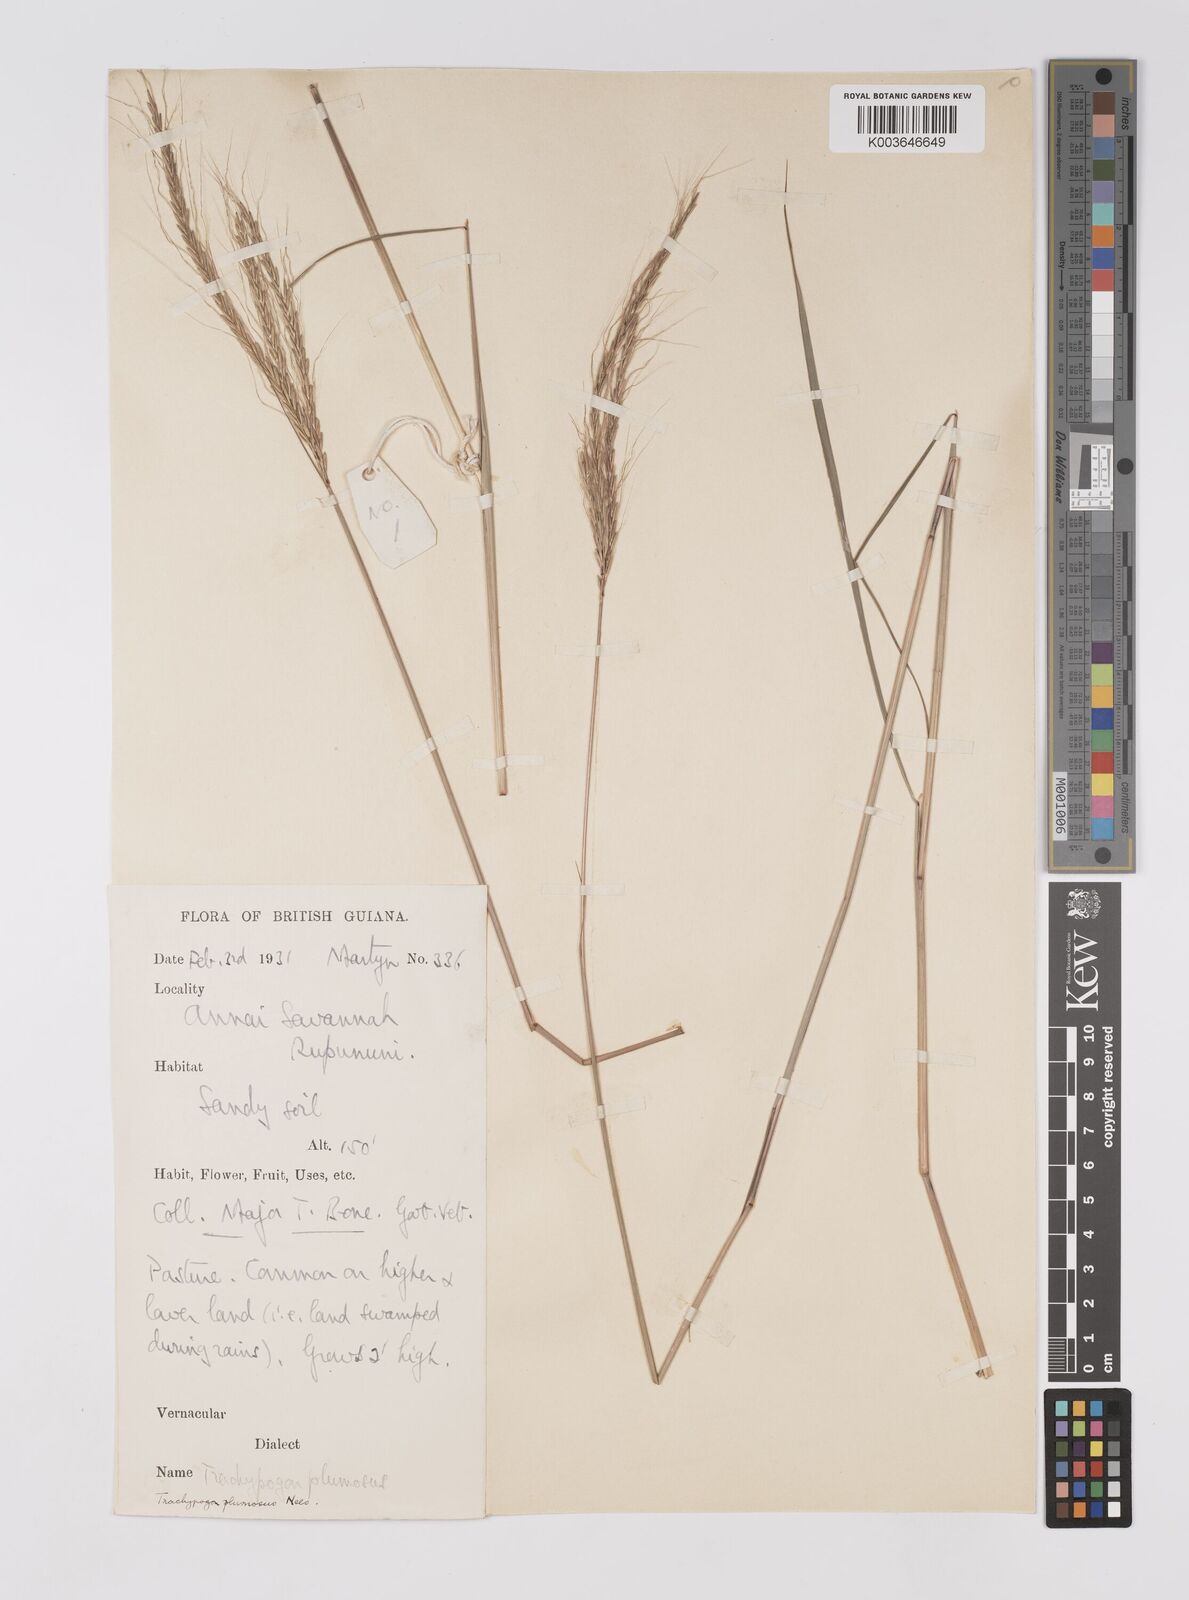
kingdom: Plantae
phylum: Tracheophyta
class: Liliopsida
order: Poales
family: Poaceae
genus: Trachypogon
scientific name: Trachypogon spicatus
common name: Crinkle-awn
